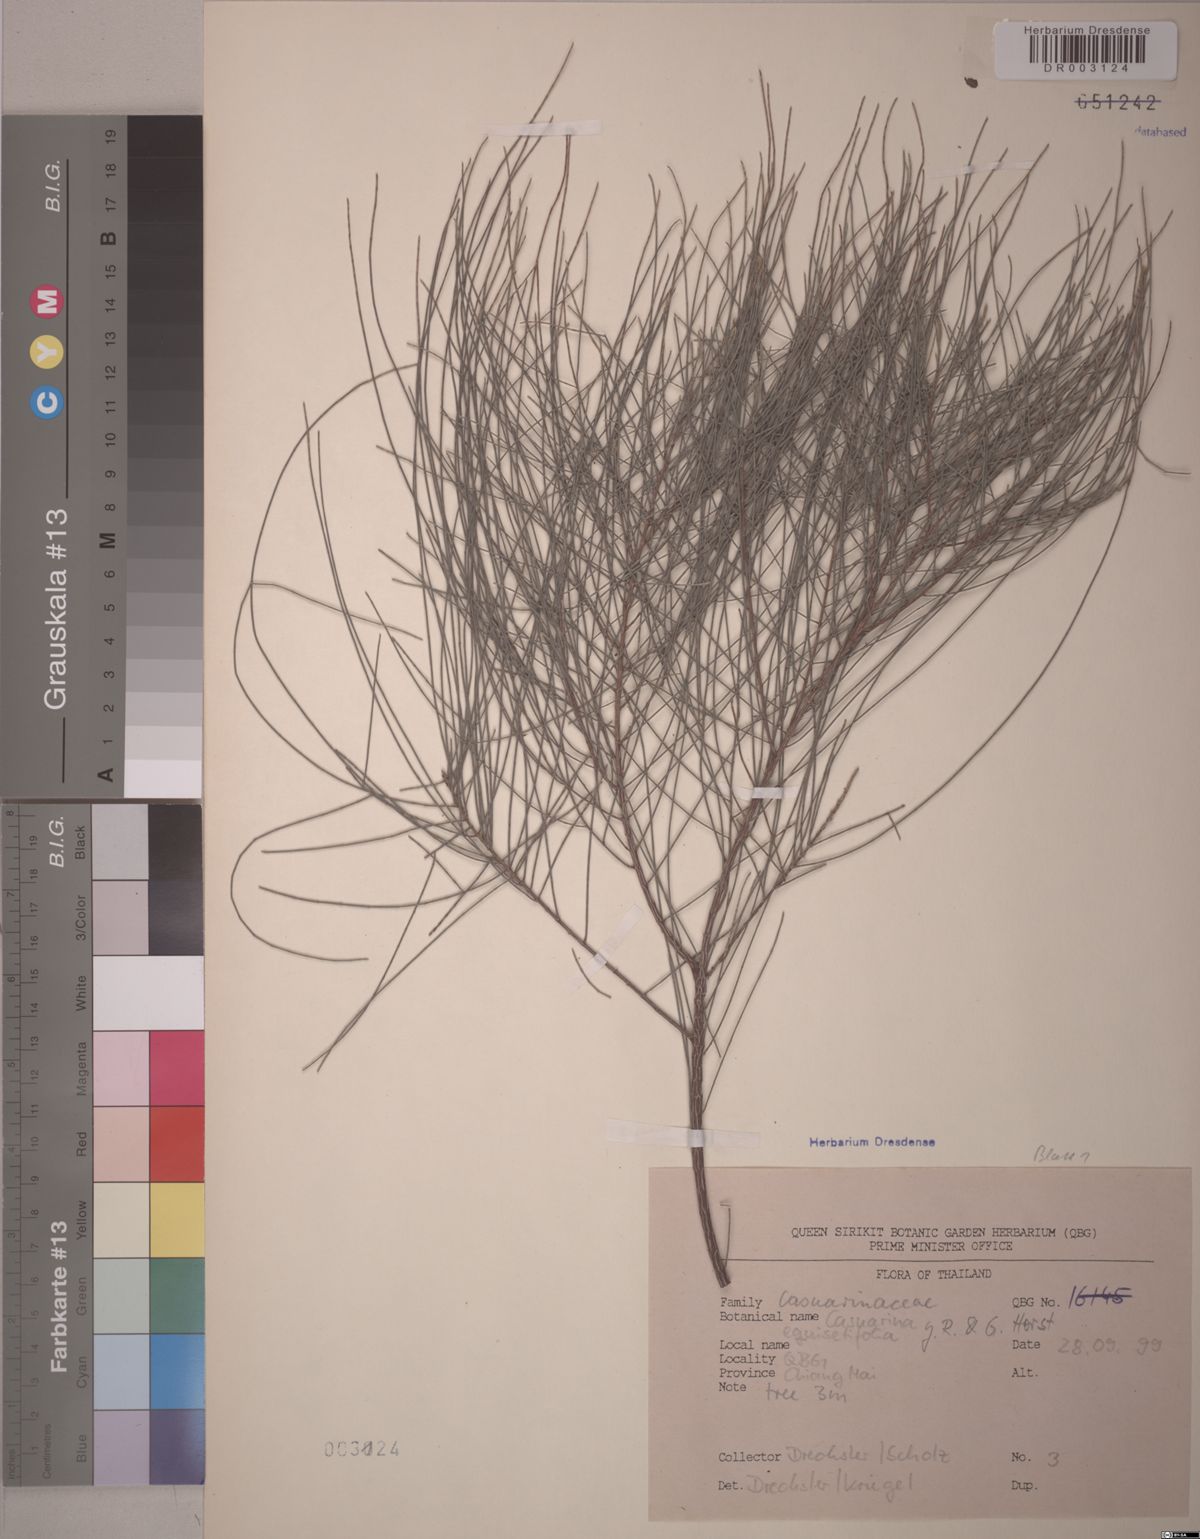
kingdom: Plantae
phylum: Tracheophyta
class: Magnoliopsida
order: Fagales
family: Casuarinaceae
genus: Casuarina
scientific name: Casuarina equisetifolia
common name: Beach sheoak
